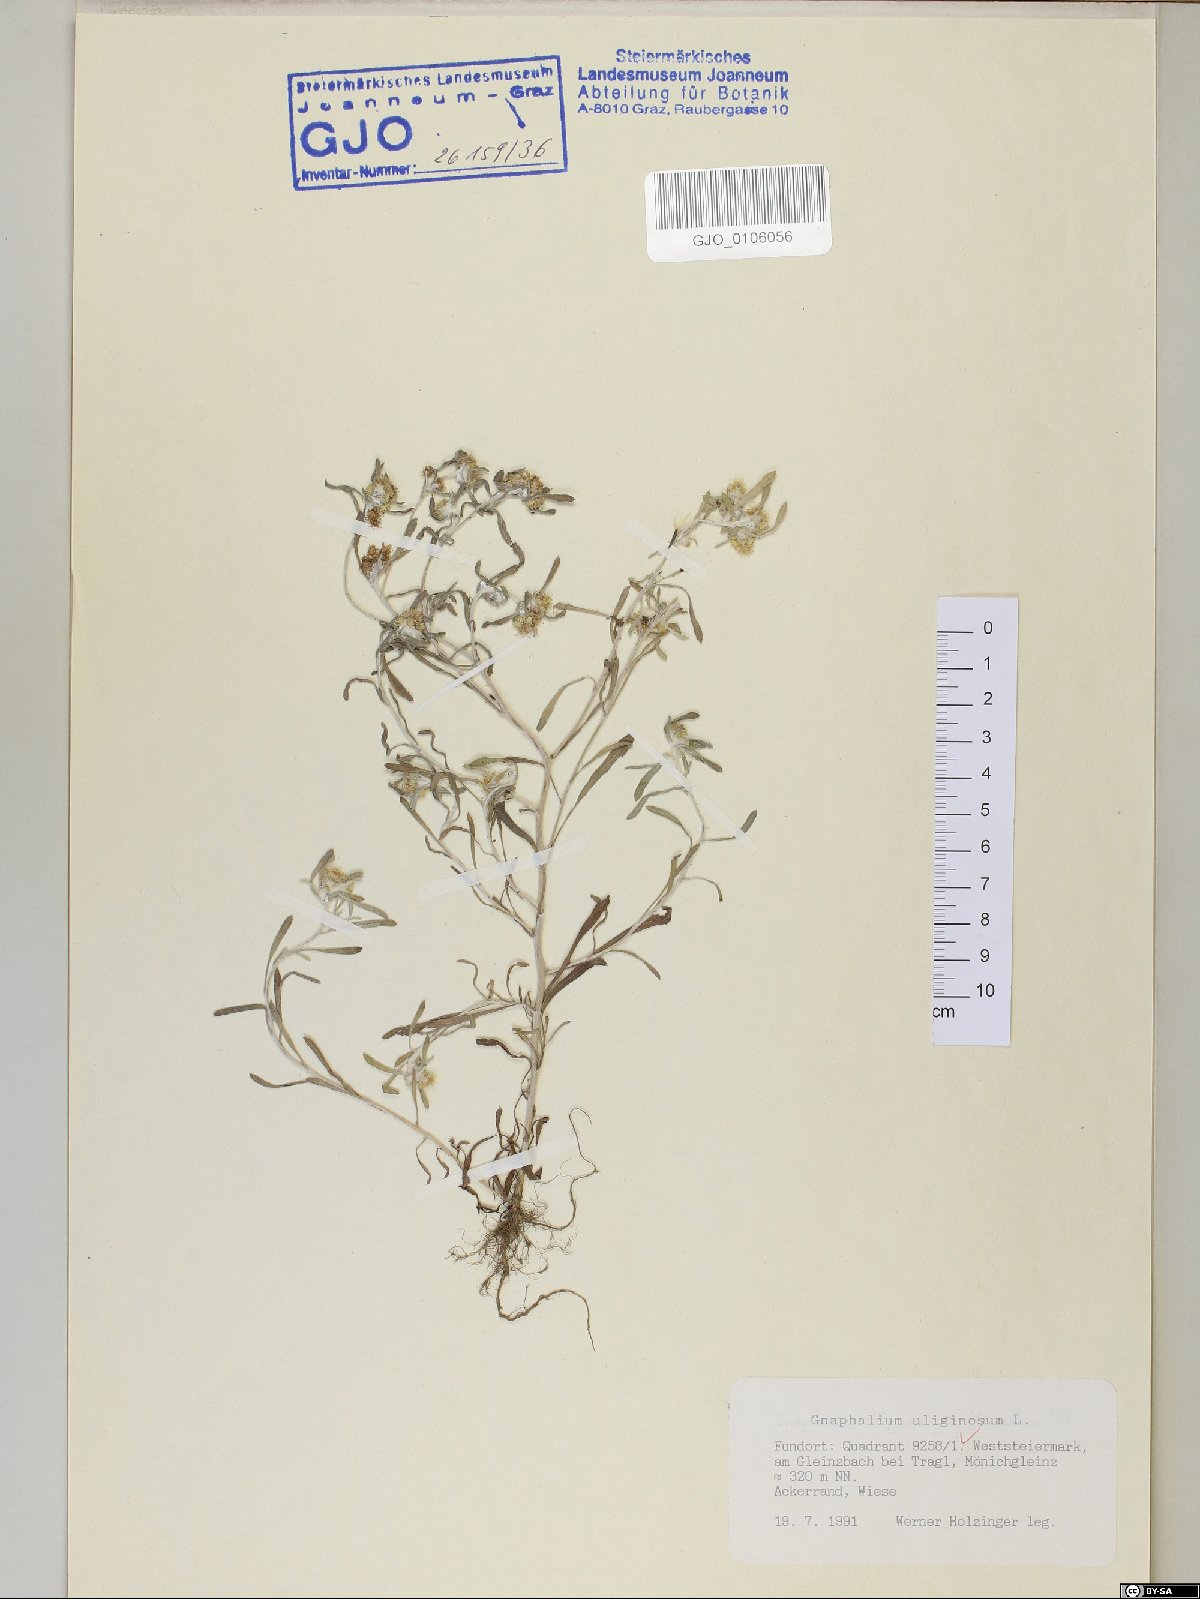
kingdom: Plantae
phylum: Tracheophyta
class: Magnoliopsida
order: Asterales
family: Asteraceae
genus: Gnaphalium
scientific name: Gnaphalium uliginosum
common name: Marsh cudweed
